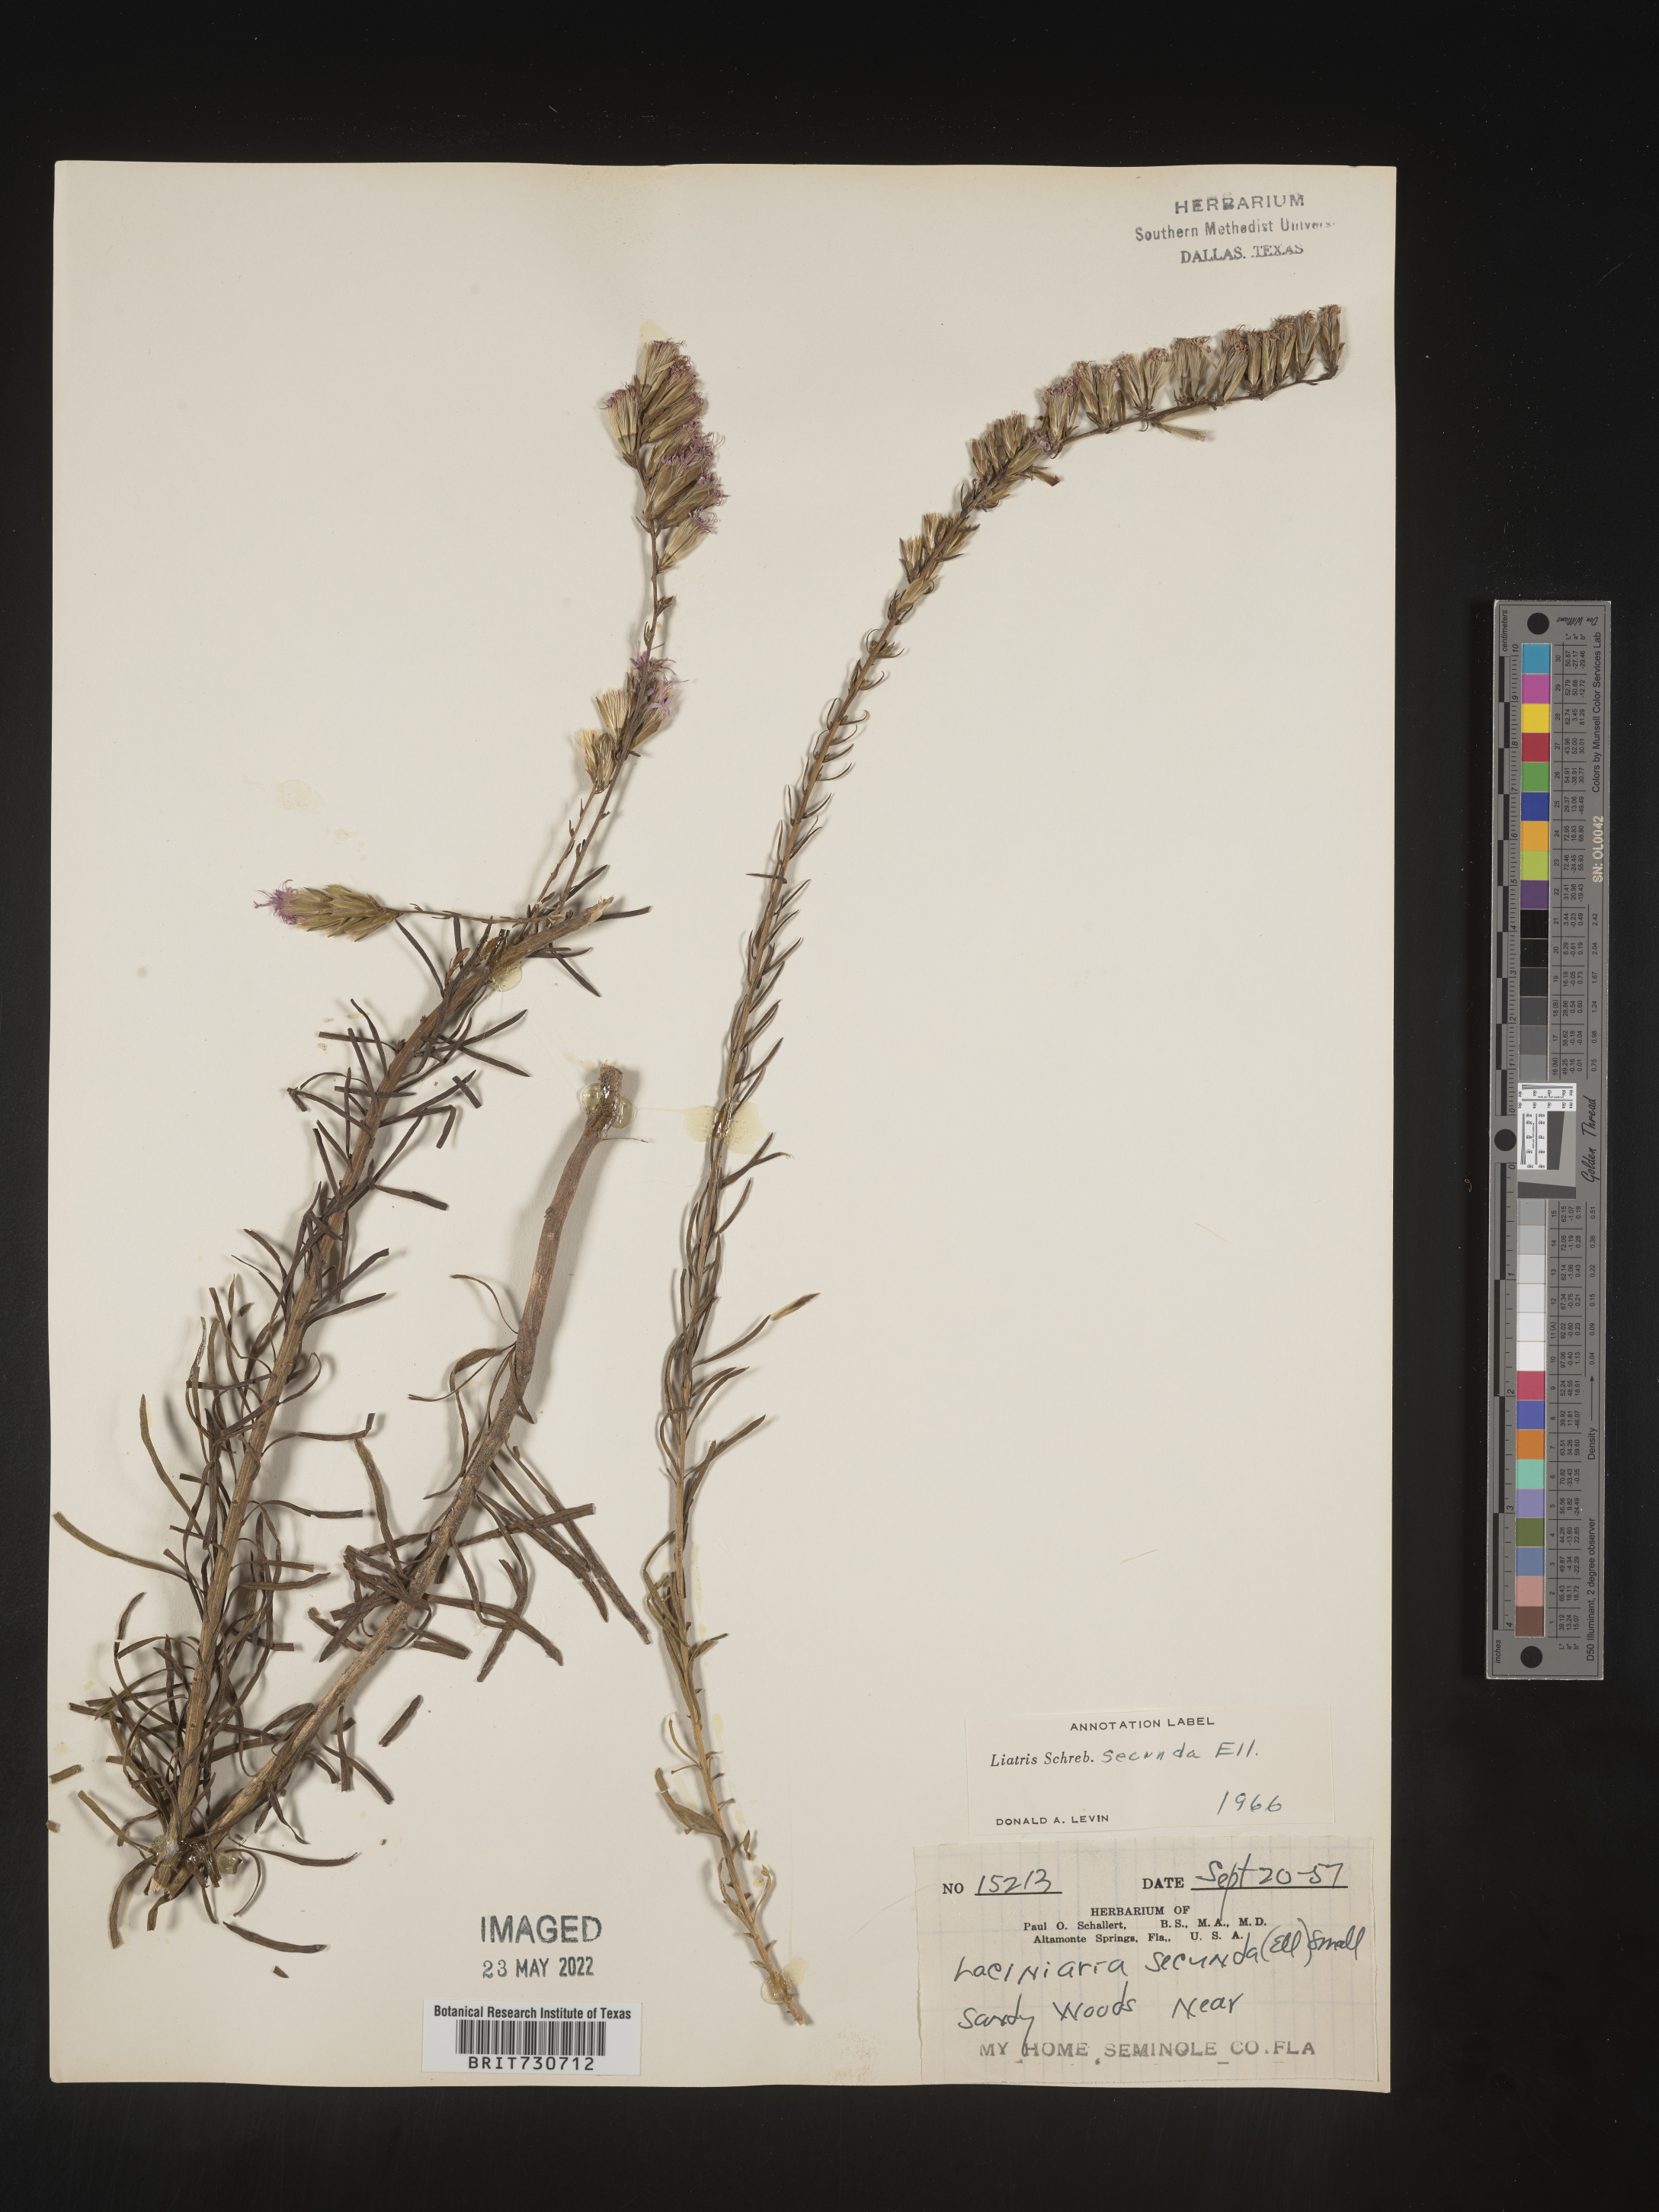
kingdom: Plantae
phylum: Tracheophyta
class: Magnoliopsida
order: Asterales
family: Asteraceae
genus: Liatris
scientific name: Liatris pauciflora
